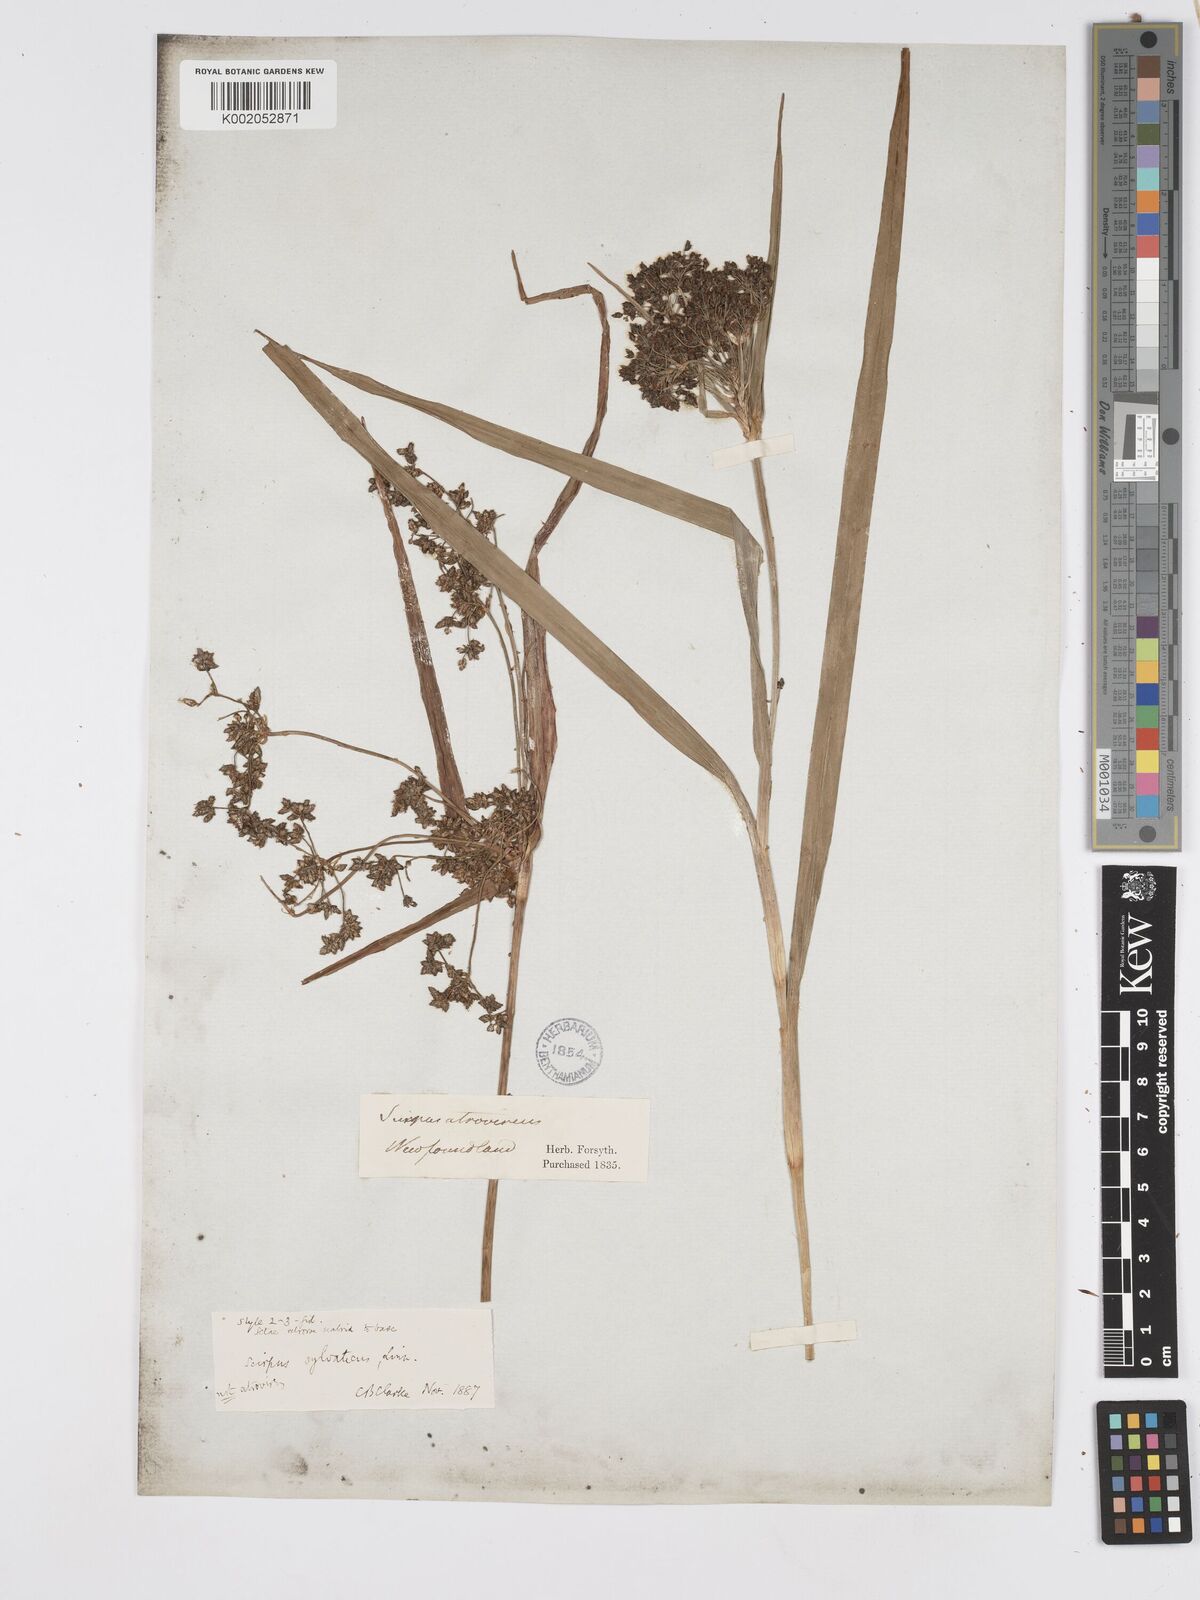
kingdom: Plantae
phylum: Tracheophyta
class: Liliopsida
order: Poales
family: Cyperaceae
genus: Scirpus
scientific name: Scirpus sylvaticus
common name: Wood club-rush
